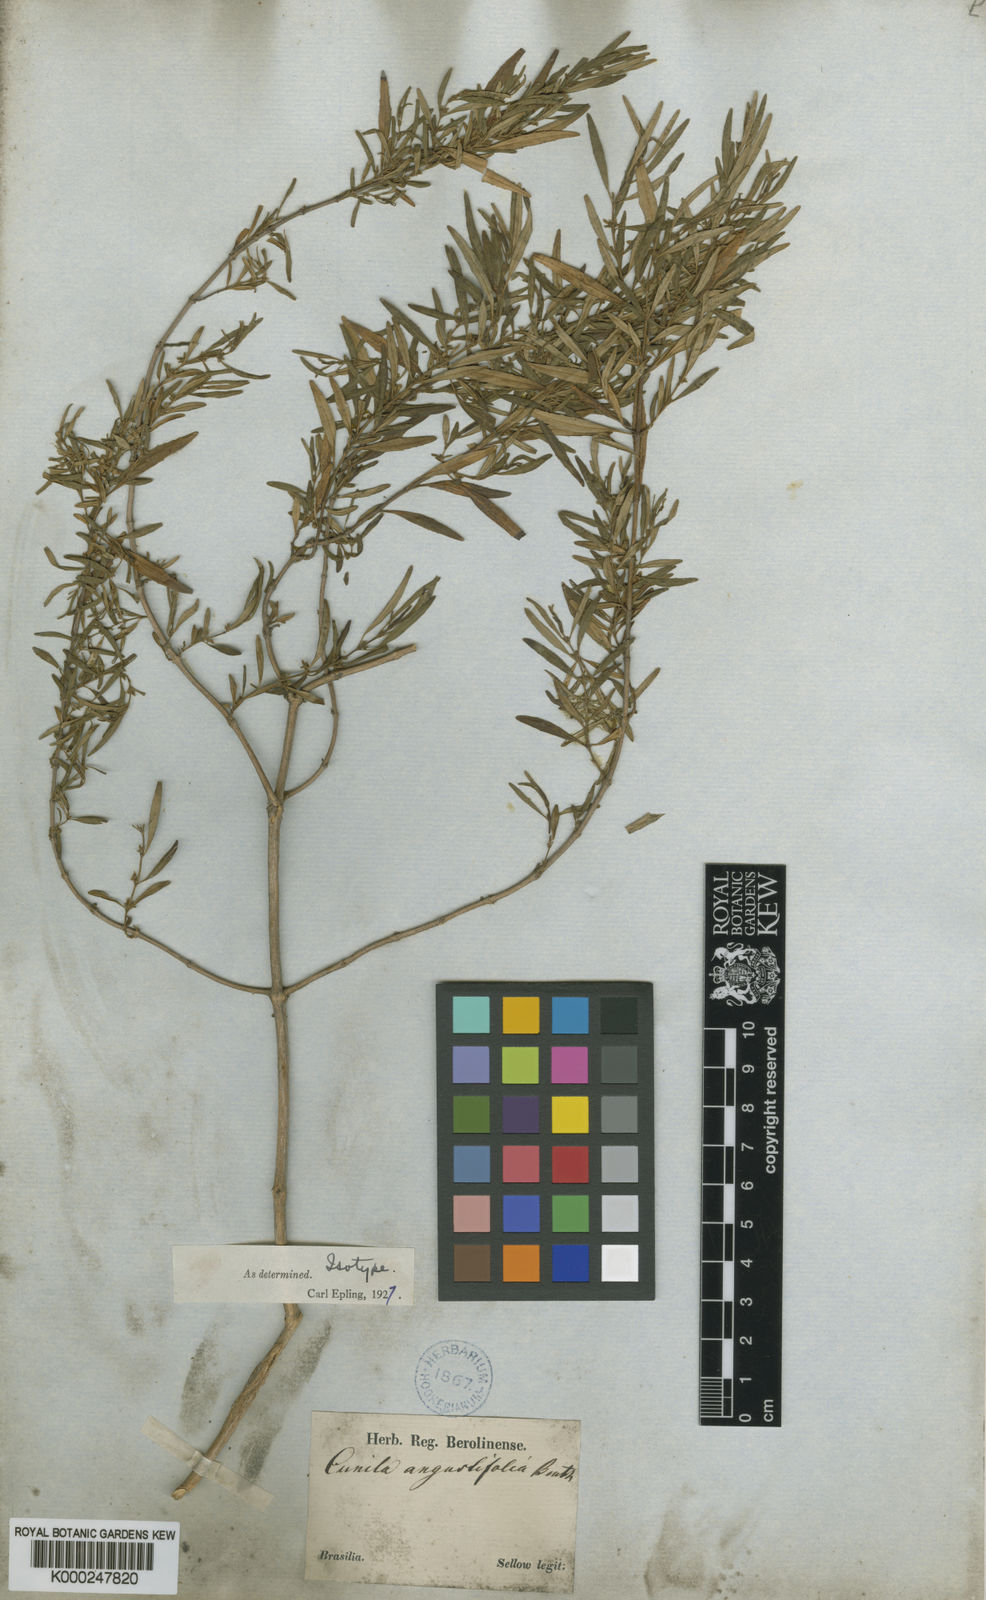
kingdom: Plantae
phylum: Tracheophyta
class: Magnoliopsida
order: Lamiales
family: Lamiaceae
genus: Cunila
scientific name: Cunila angustifolia
